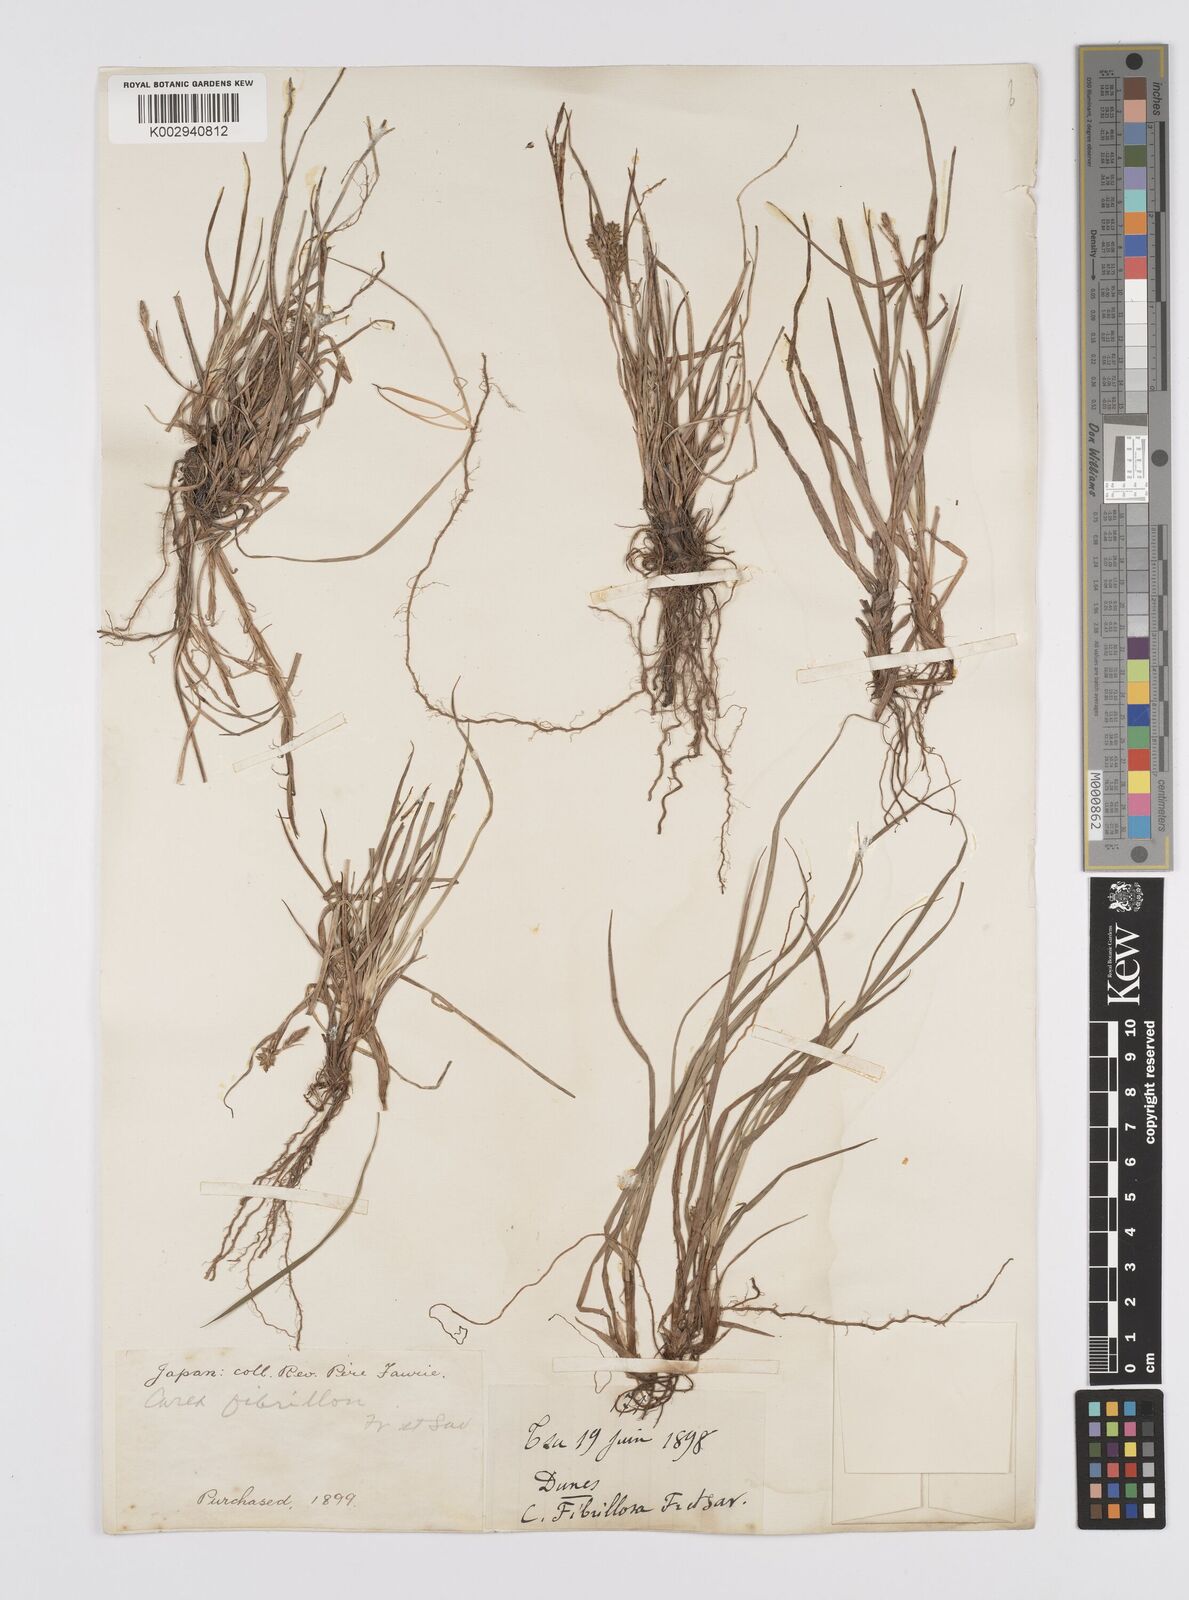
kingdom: Plantae
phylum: Tracheophyta
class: Liliopsida
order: Poales
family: Cyperaceae
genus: Carex
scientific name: Carex breviculmis
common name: Asian shortstem sedge
